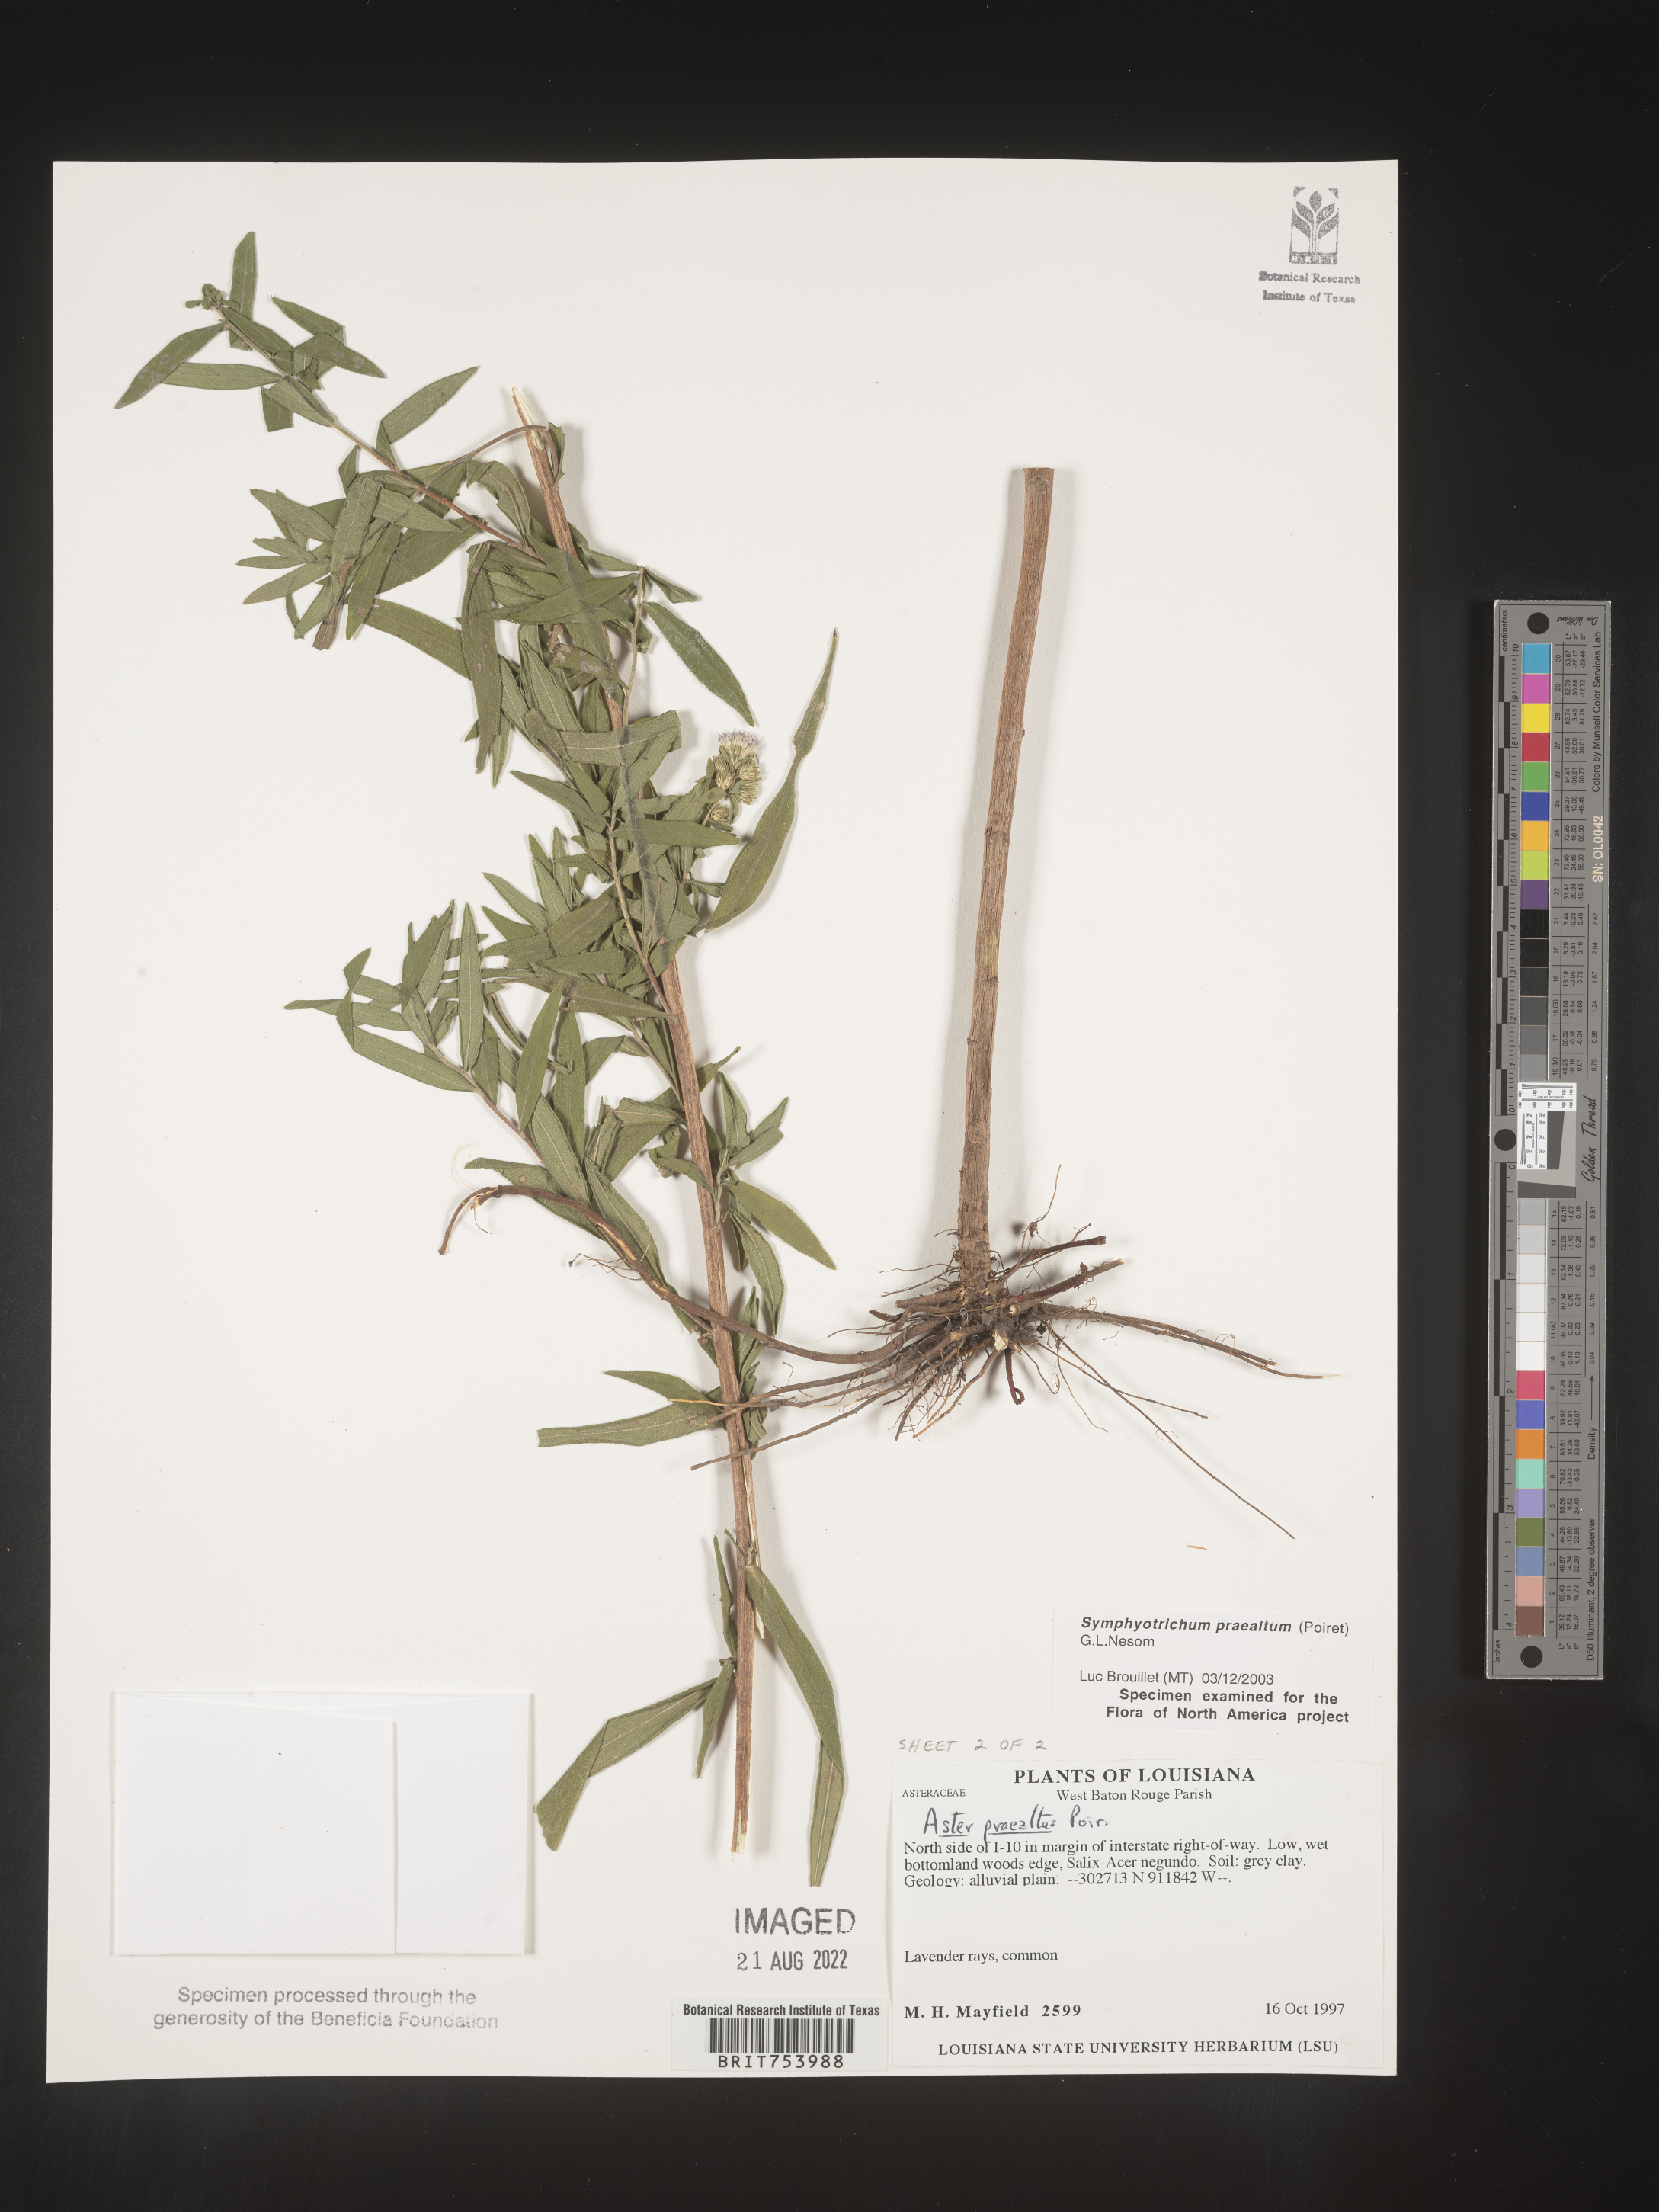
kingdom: Plantae
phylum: Tracheophyta
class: Magnoliopsida
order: Asterales
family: Asteraceae
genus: Symphyotrichum
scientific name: Symphyotrichum praealtum
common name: Willow aster
